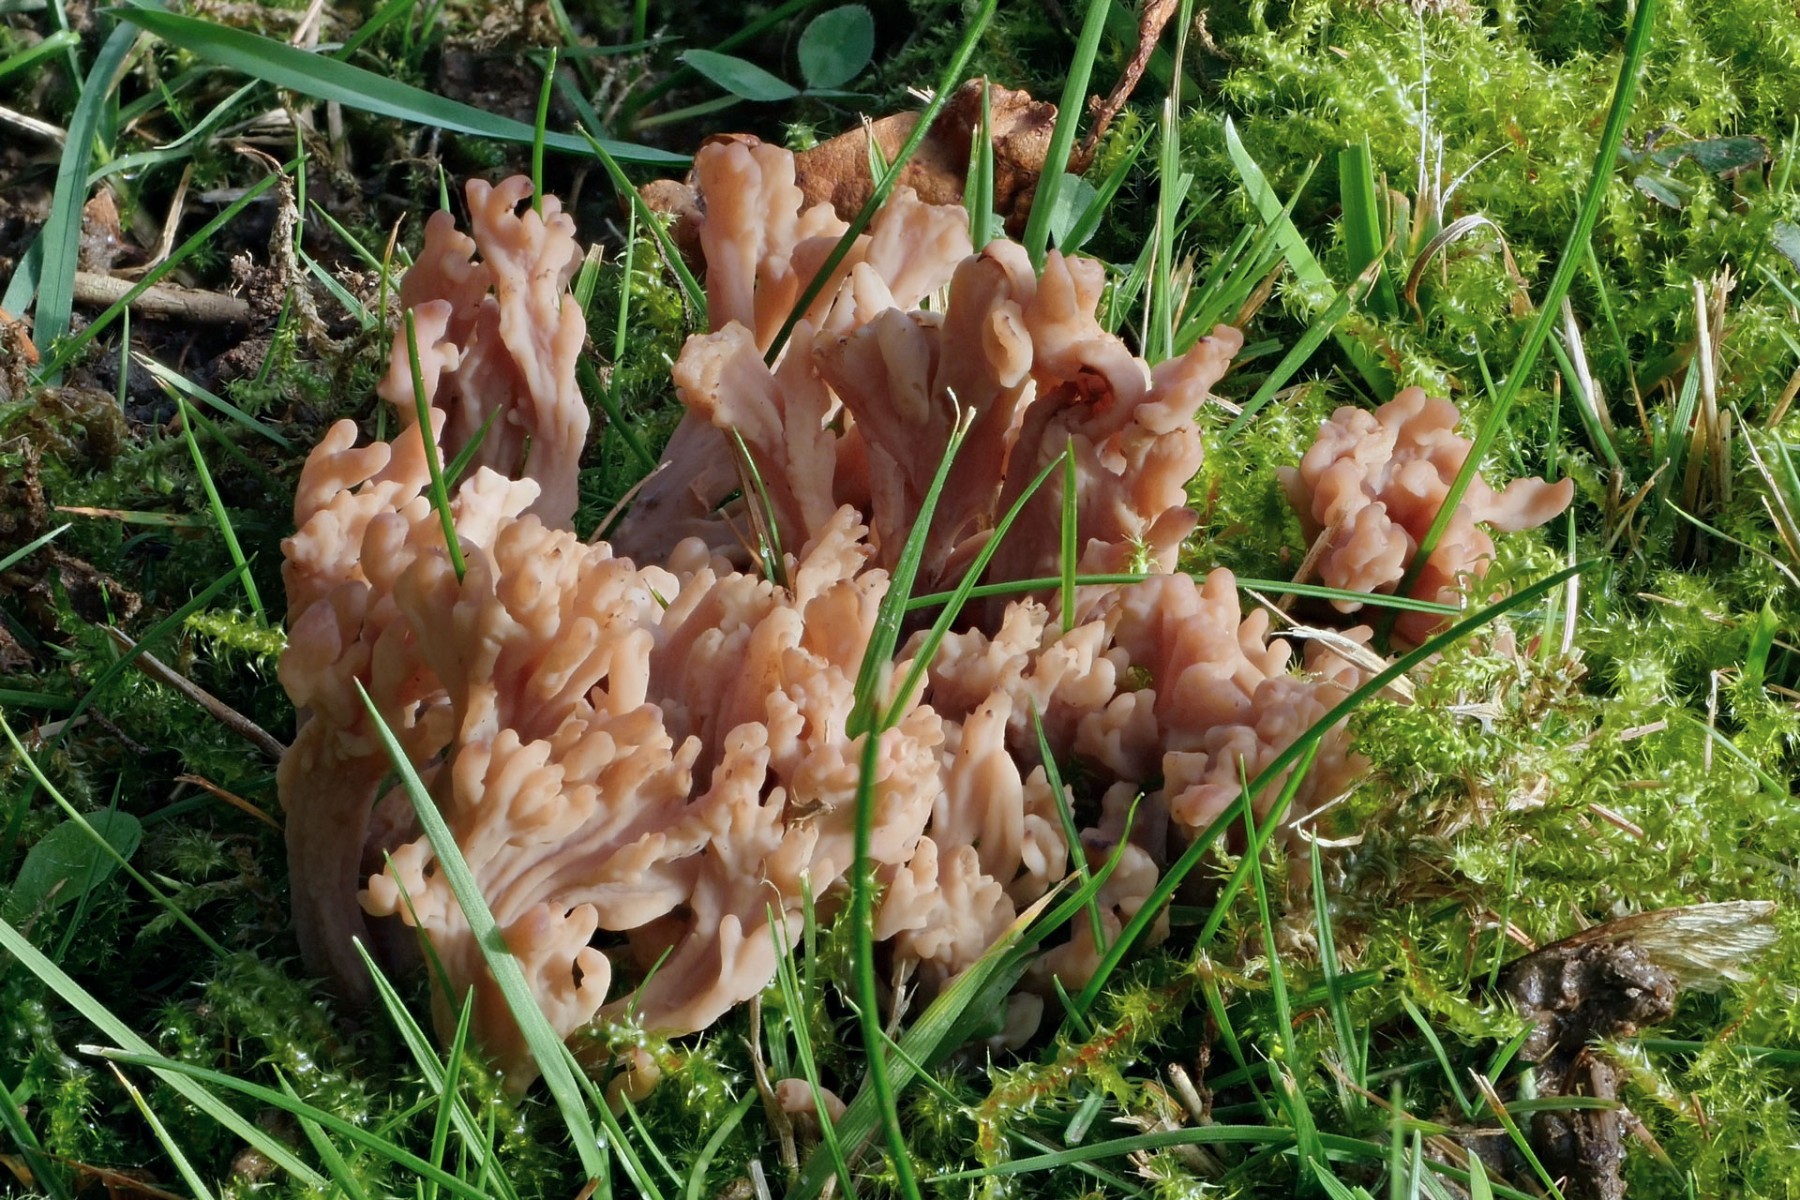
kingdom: Plantae
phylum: Bryophyta
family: Agaricomycetidae
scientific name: Agaricomycetidae
